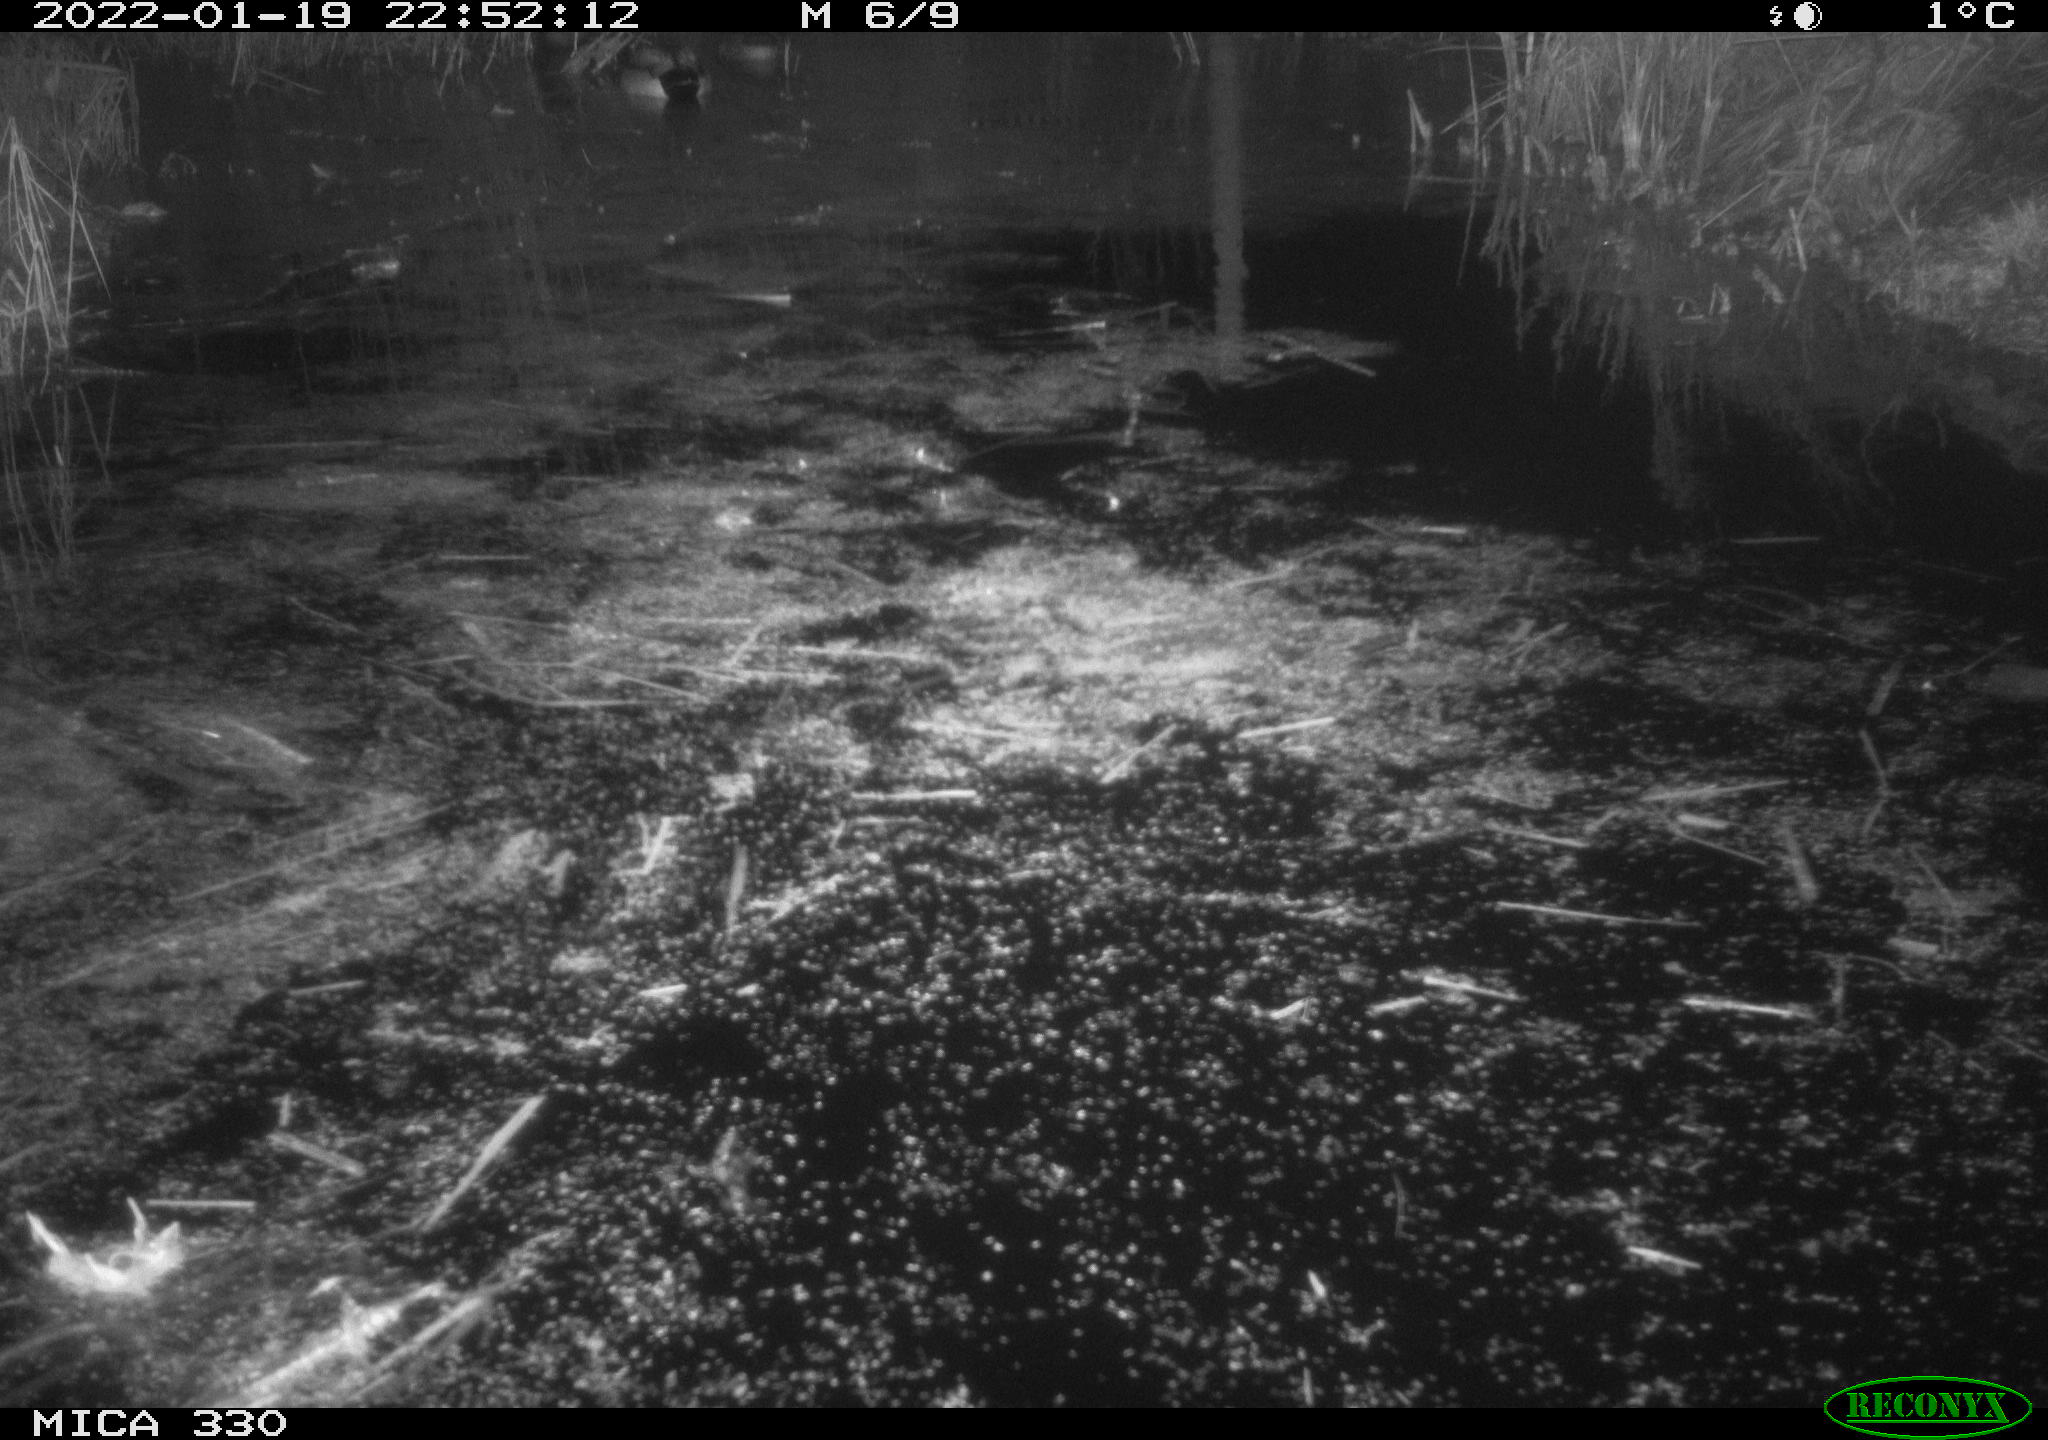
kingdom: Animalia
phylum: Chordata
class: Aves
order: Gruiformes
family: Rallidae
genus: Gallinula
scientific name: Gallinula chloropus
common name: Common moorhen
